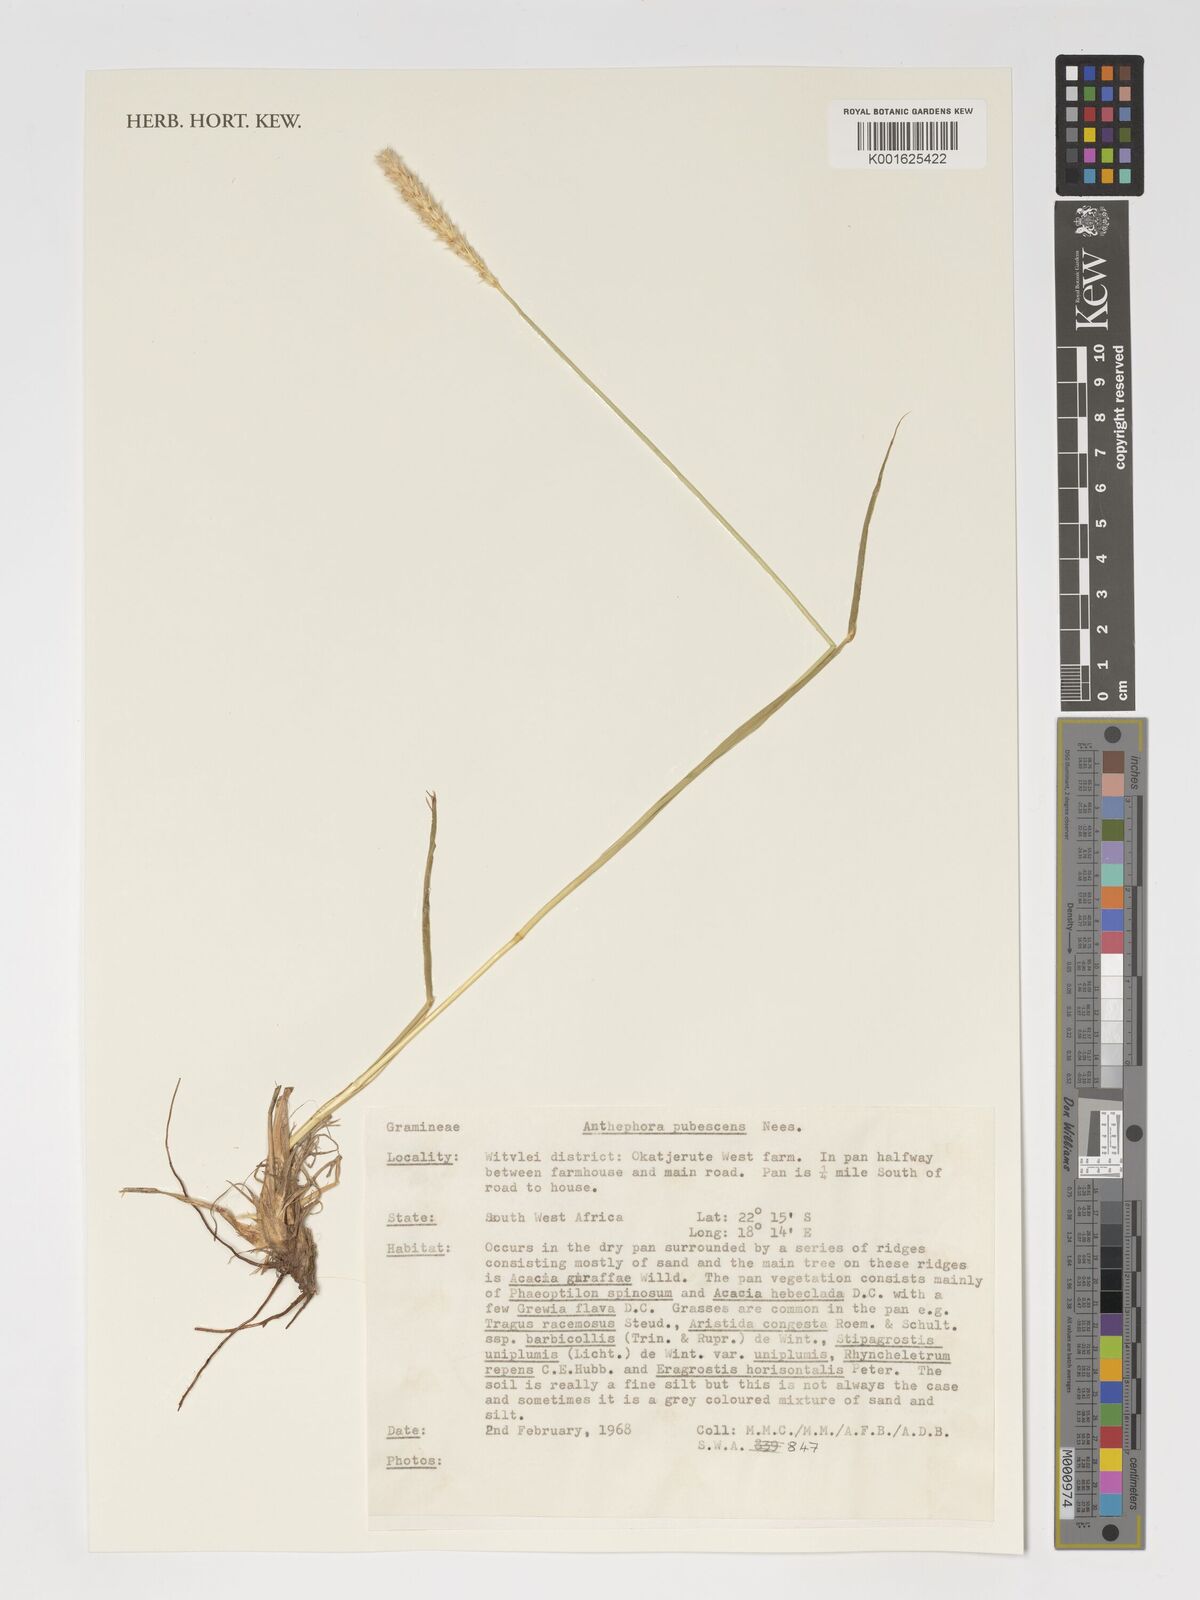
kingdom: Plantae
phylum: Tracheophyta
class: Liliopsida
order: Poales
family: Poaceae
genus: Anthephora
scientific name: Anthephora pubescens
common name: Wool grass
